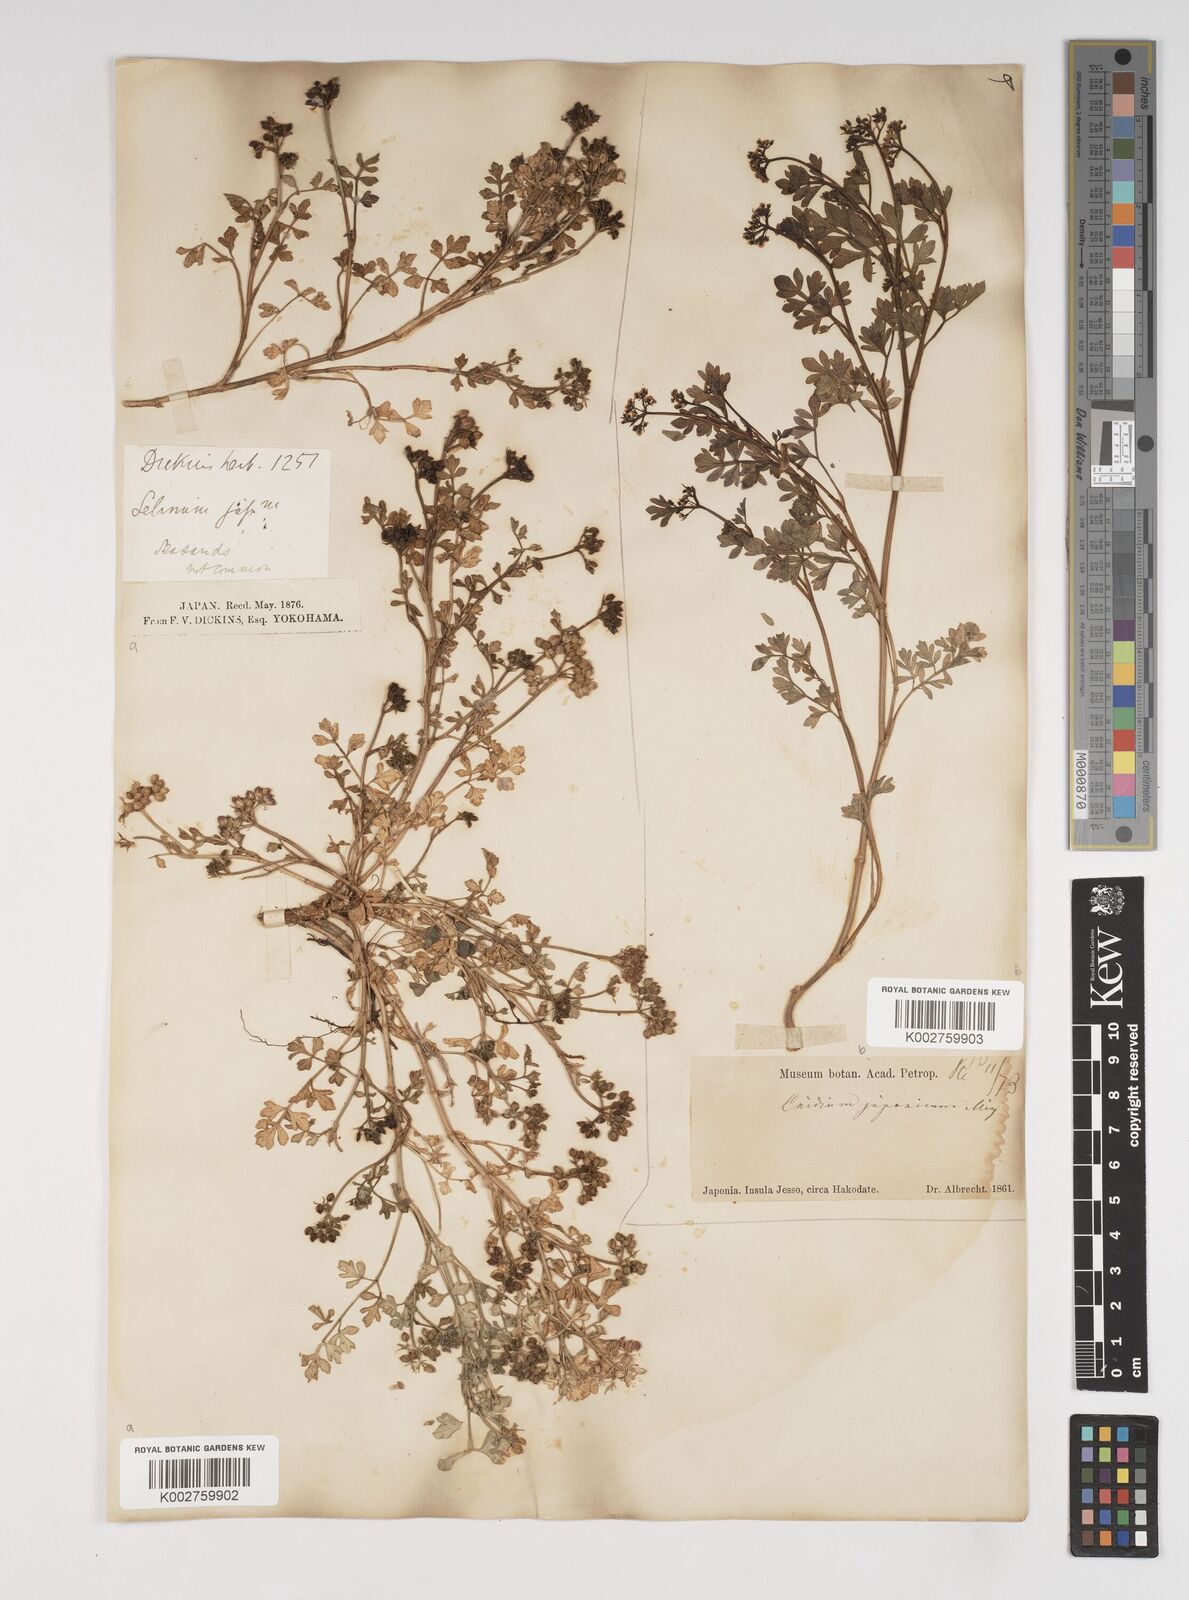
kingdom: Plantae
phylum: Tracheophyta
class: Magnoliopsida
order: Apiales
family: Apiaceae
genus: Cnidium
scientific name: Cnidium japonicum
